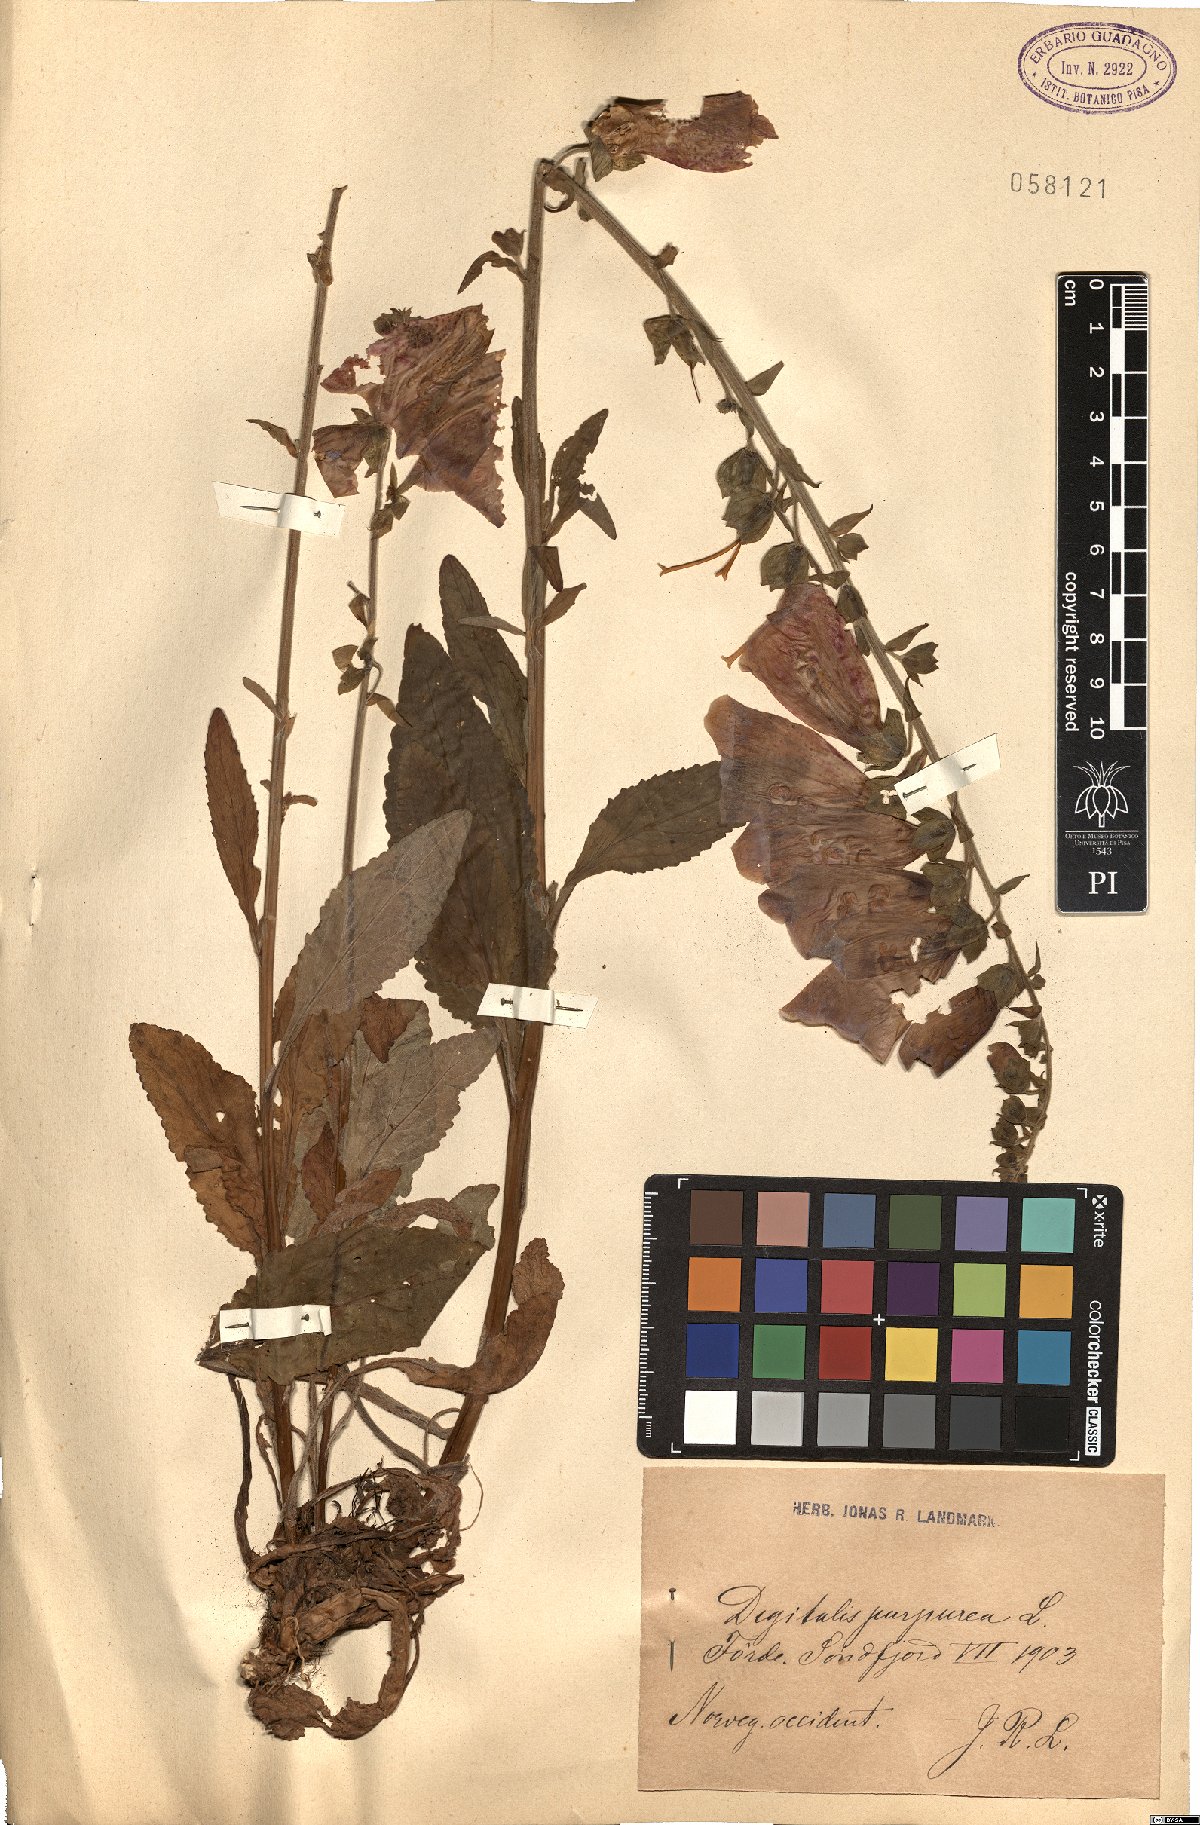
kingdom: Plantae
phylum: Tracheophyta
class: Magnoliopsida
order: Lamiales
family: Plantaginaceae
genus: Digitalis
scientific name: Digitalis purpurea
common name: Foxglove
